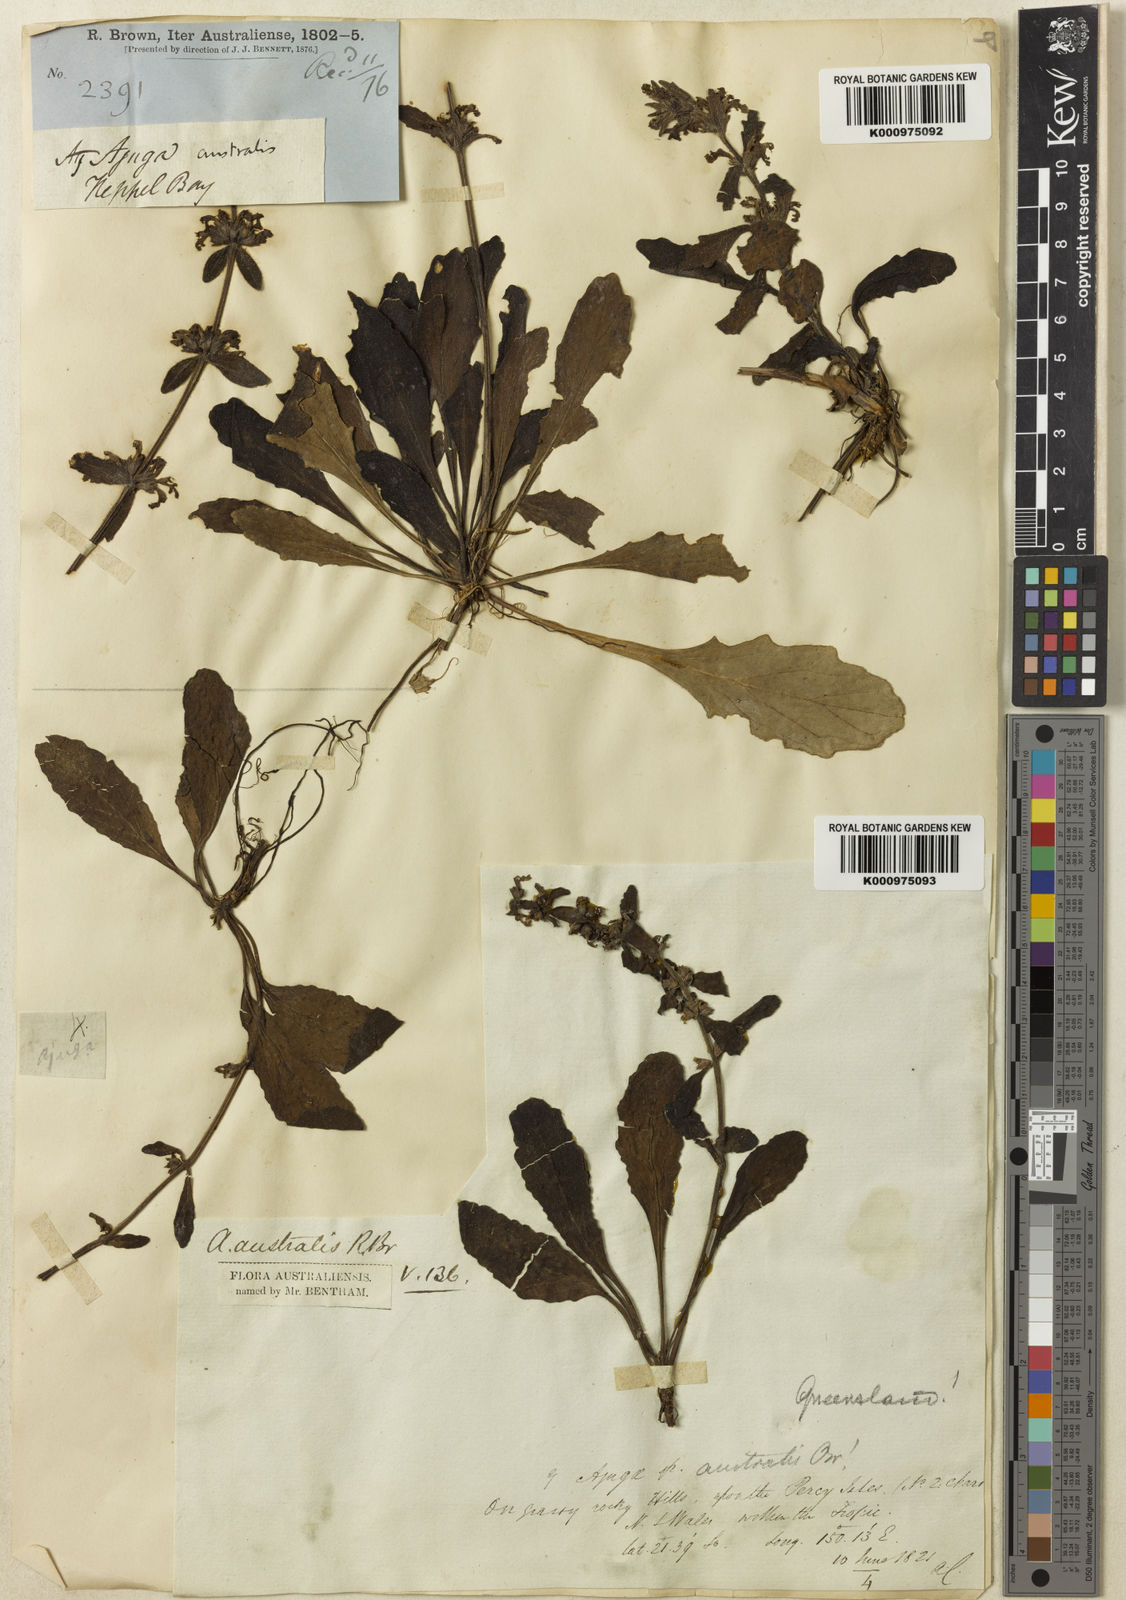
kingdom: Plantae
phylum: Tracheophyta
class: Magnoliopsida
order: Lamiales
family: Lamiaceae
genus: Ajuga
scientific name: Ajuga australis
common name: Australian bugle
